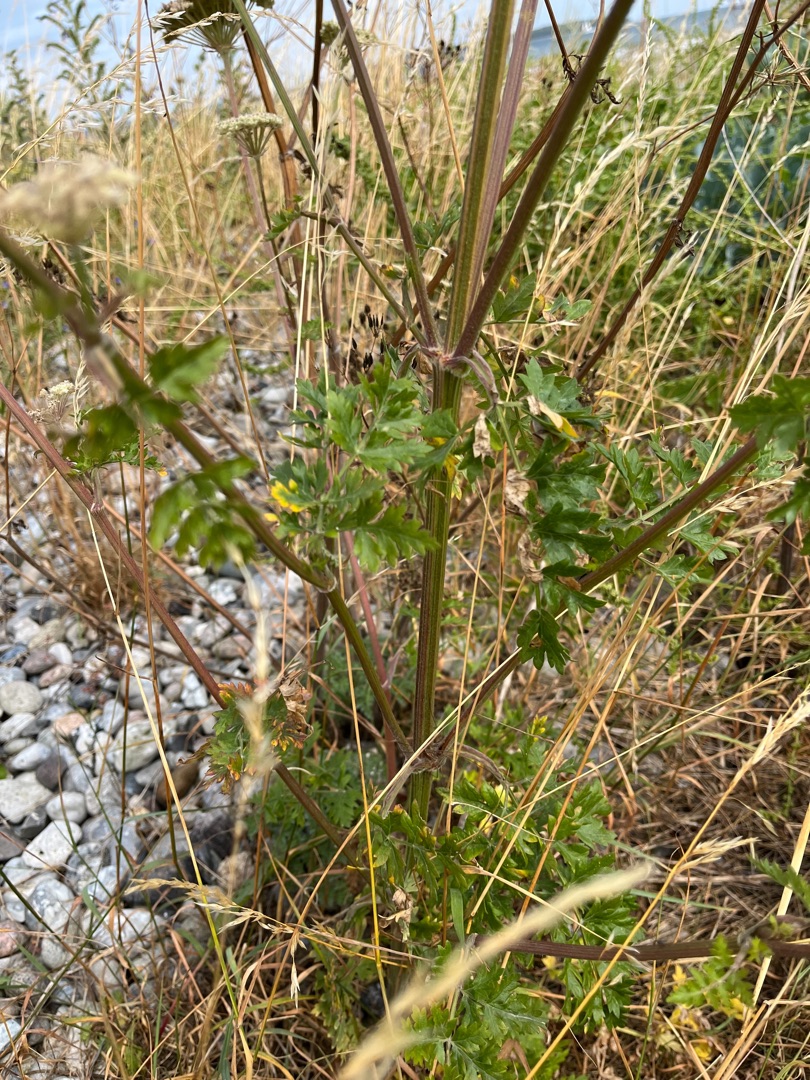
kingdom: Plantae
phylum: Tracheophyta
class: Magnoliopsida
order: Apiales
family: Apiaceae
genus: Seseli
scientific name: Seseli libanotis
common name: Hjorterod
